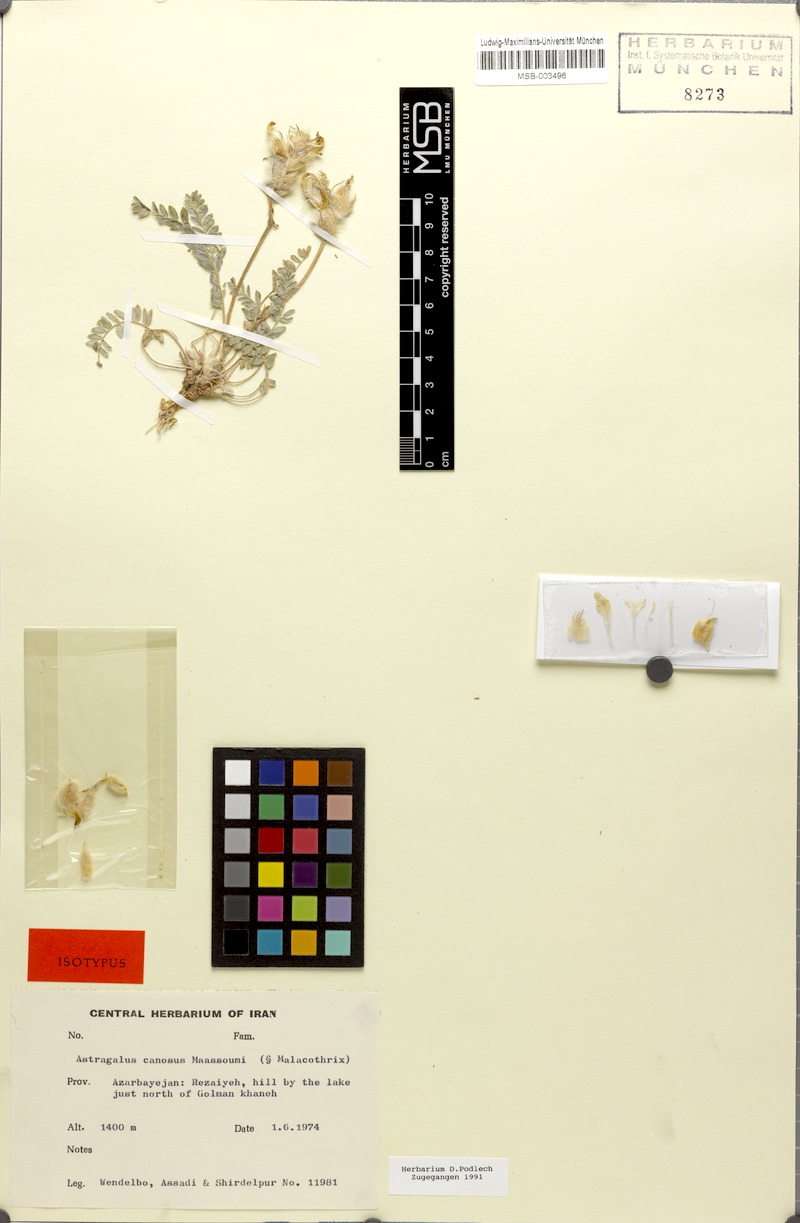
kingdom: Plantae
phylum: Tracheophyta
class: Magnoliopsida
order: Fabales
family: Fabaceae
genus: Astragalus
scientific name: Astragalus canosus
